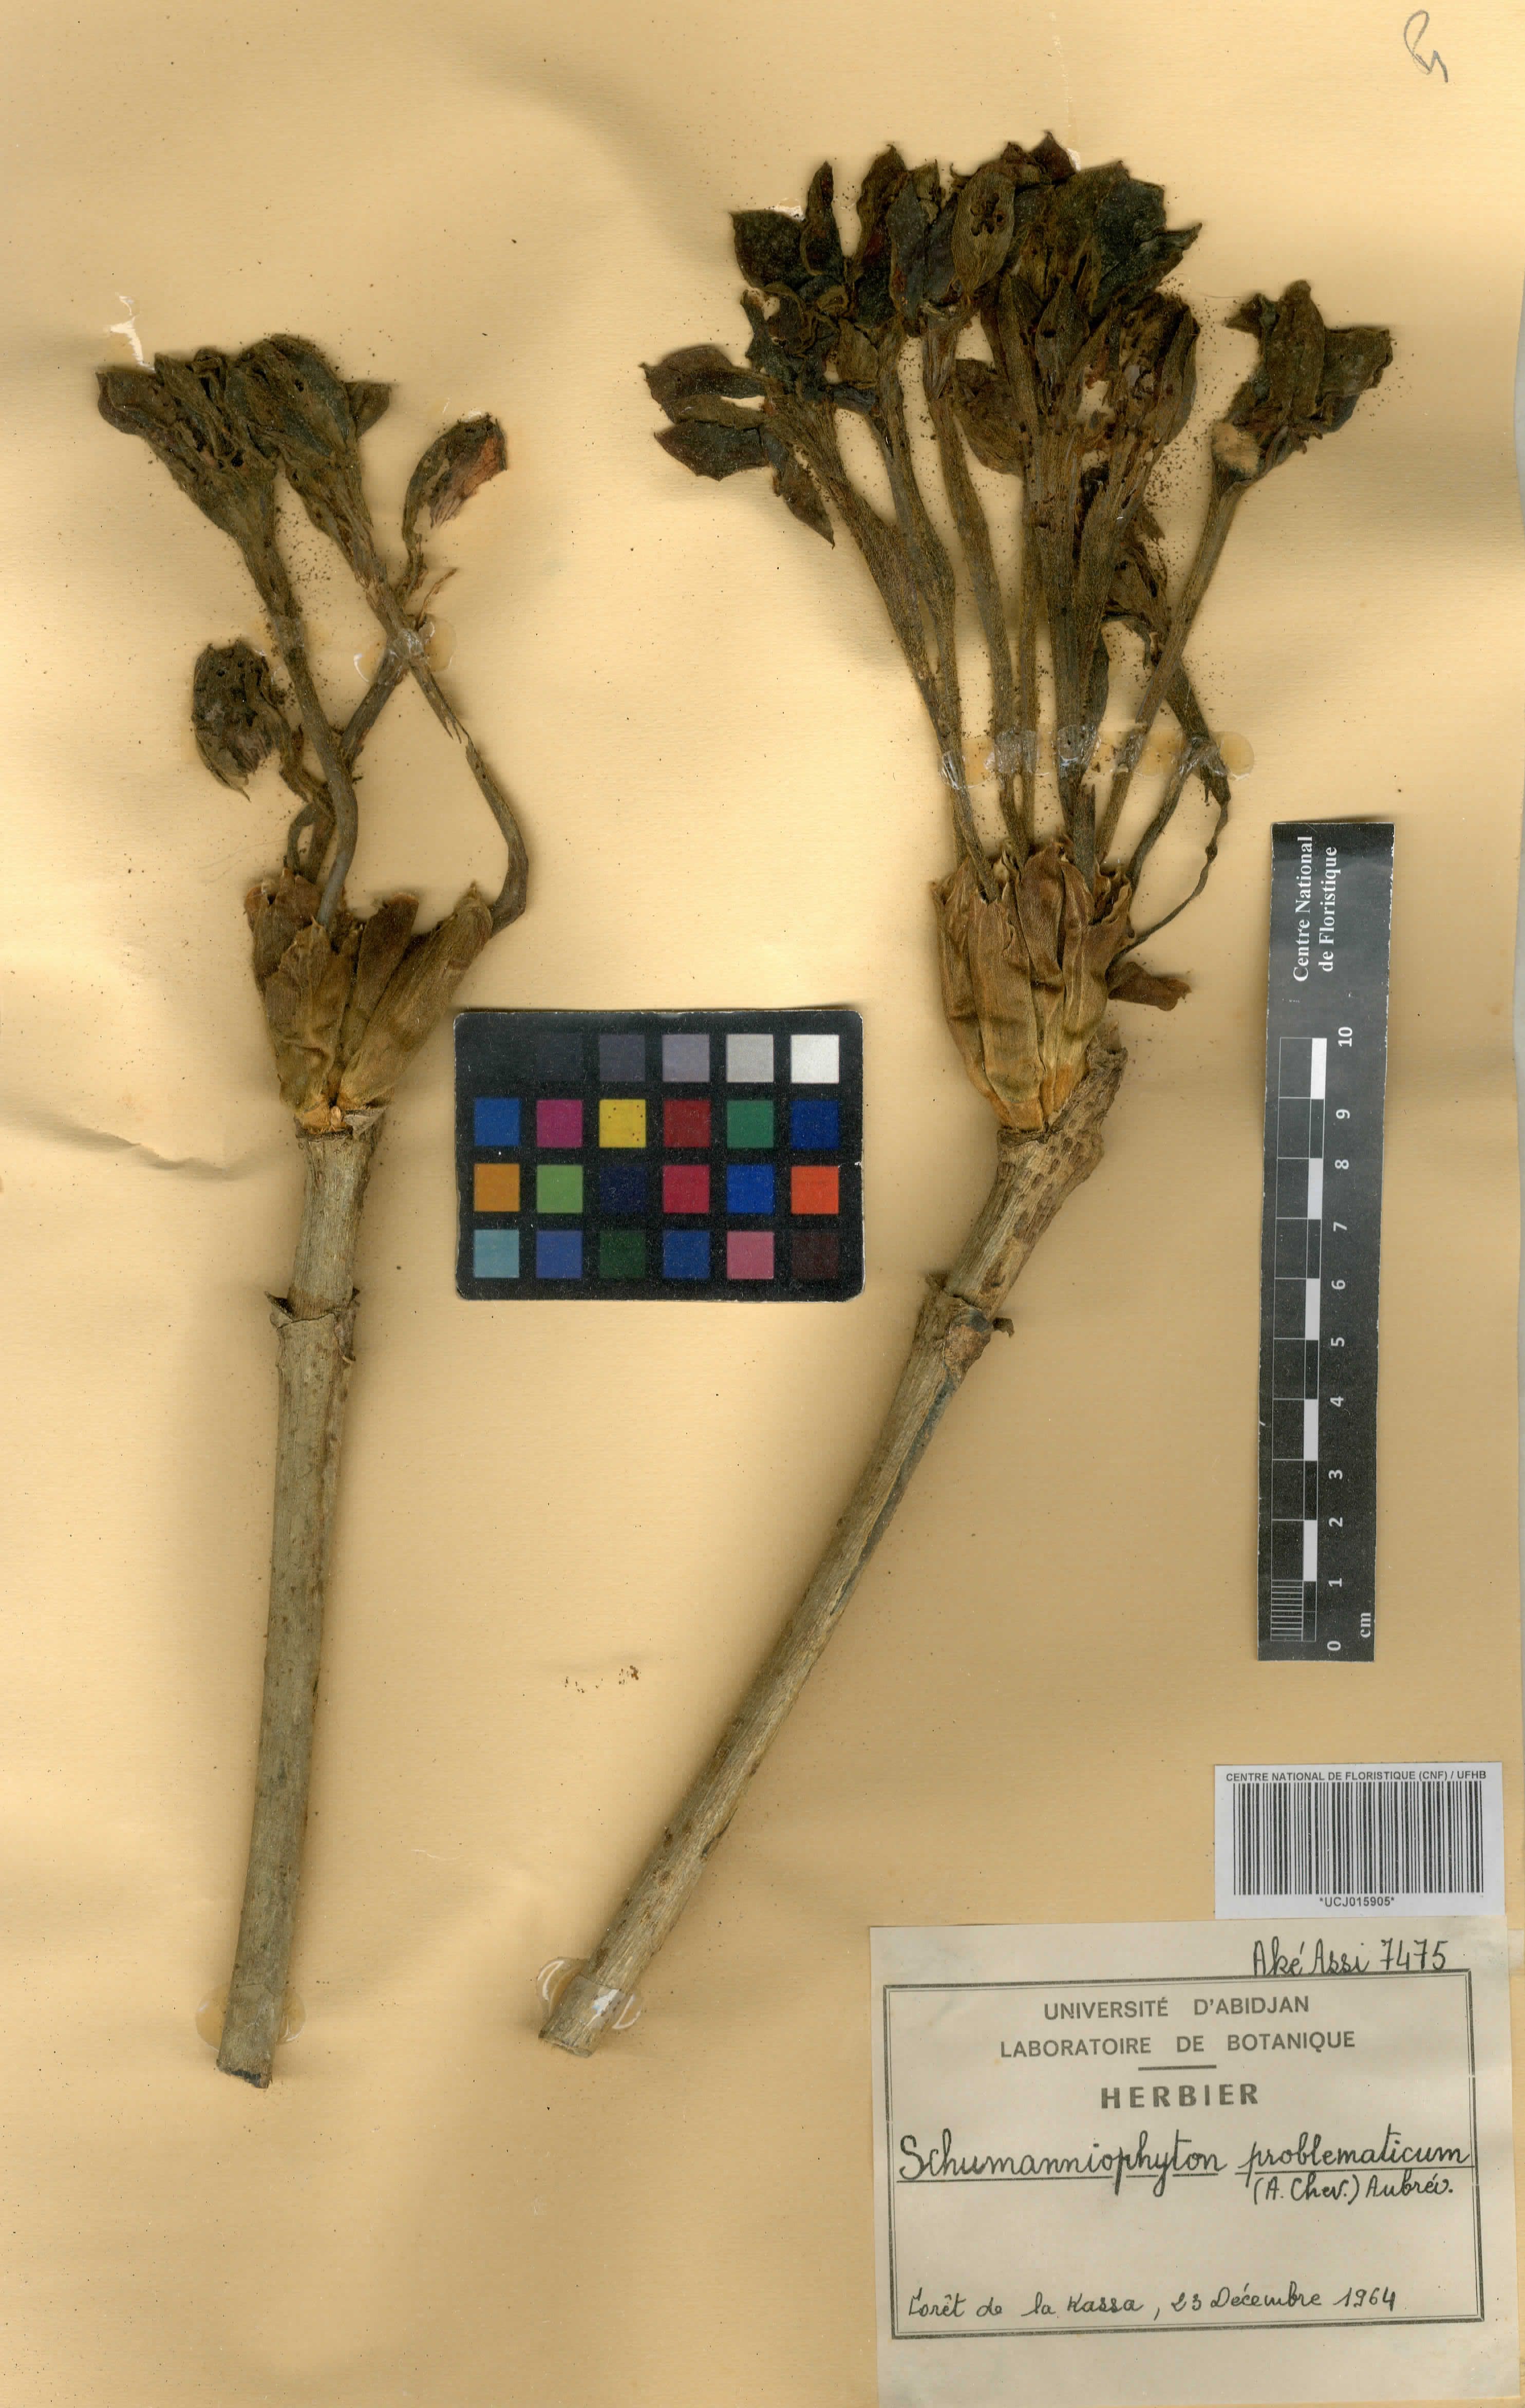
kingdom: Plantae
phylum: Tracheophyta
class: Magnoliopsida
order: Gentianales
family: Rubiaceae
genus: Schumanniophyton
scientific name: Schumanniophyton problematicum
